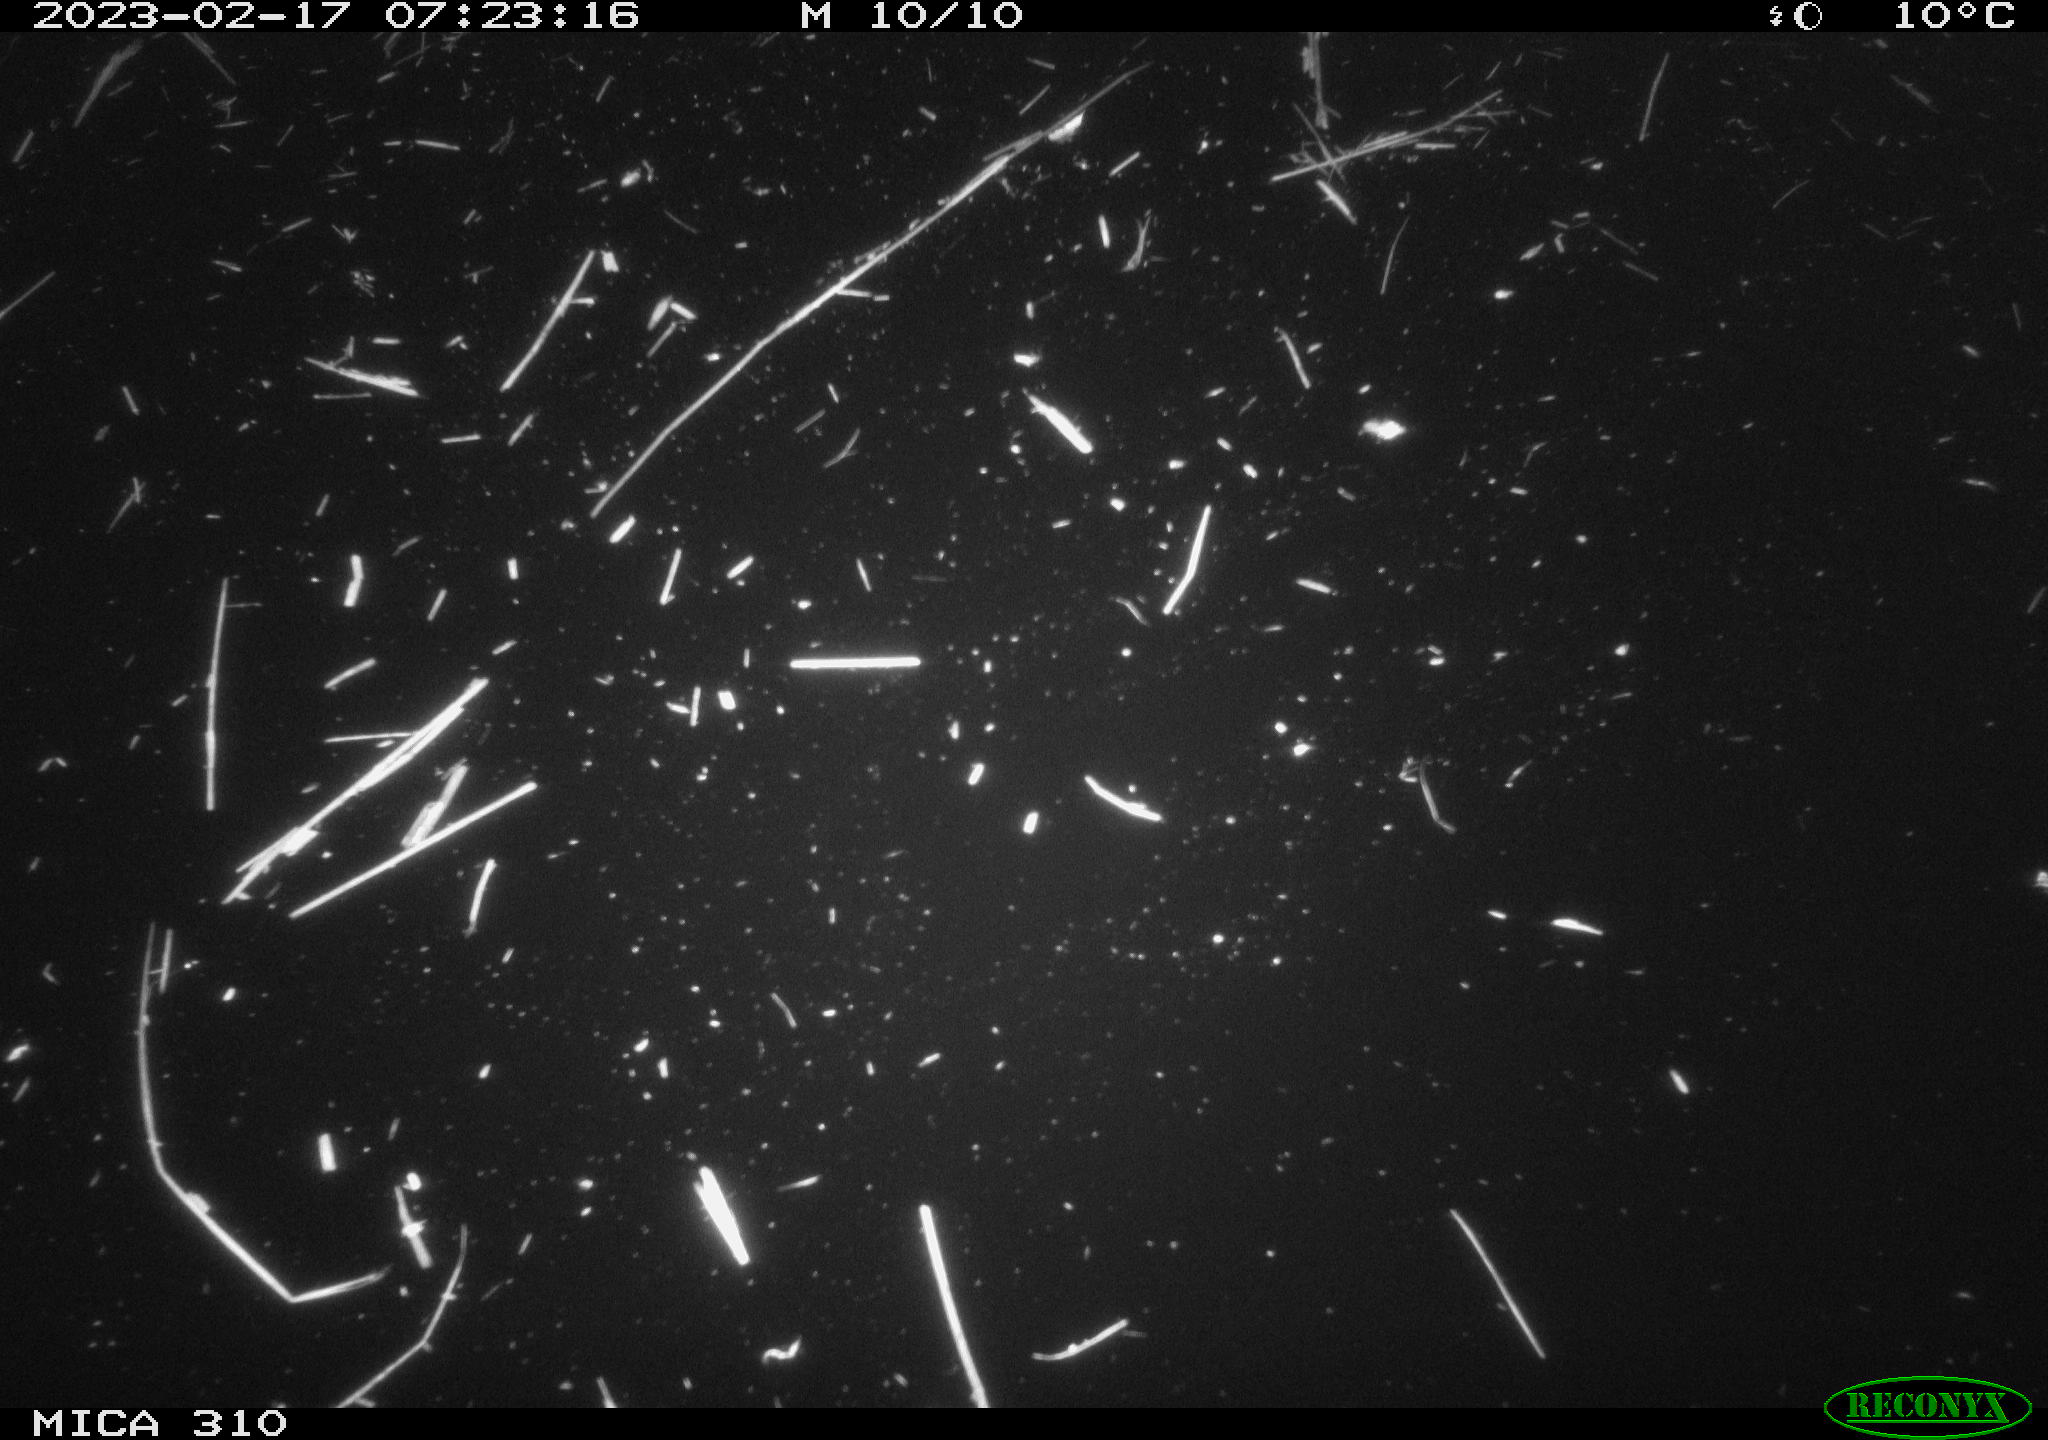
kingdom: Animalia
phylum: Chordata
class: Mammalia
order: Rodentia
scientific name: Rodentia
